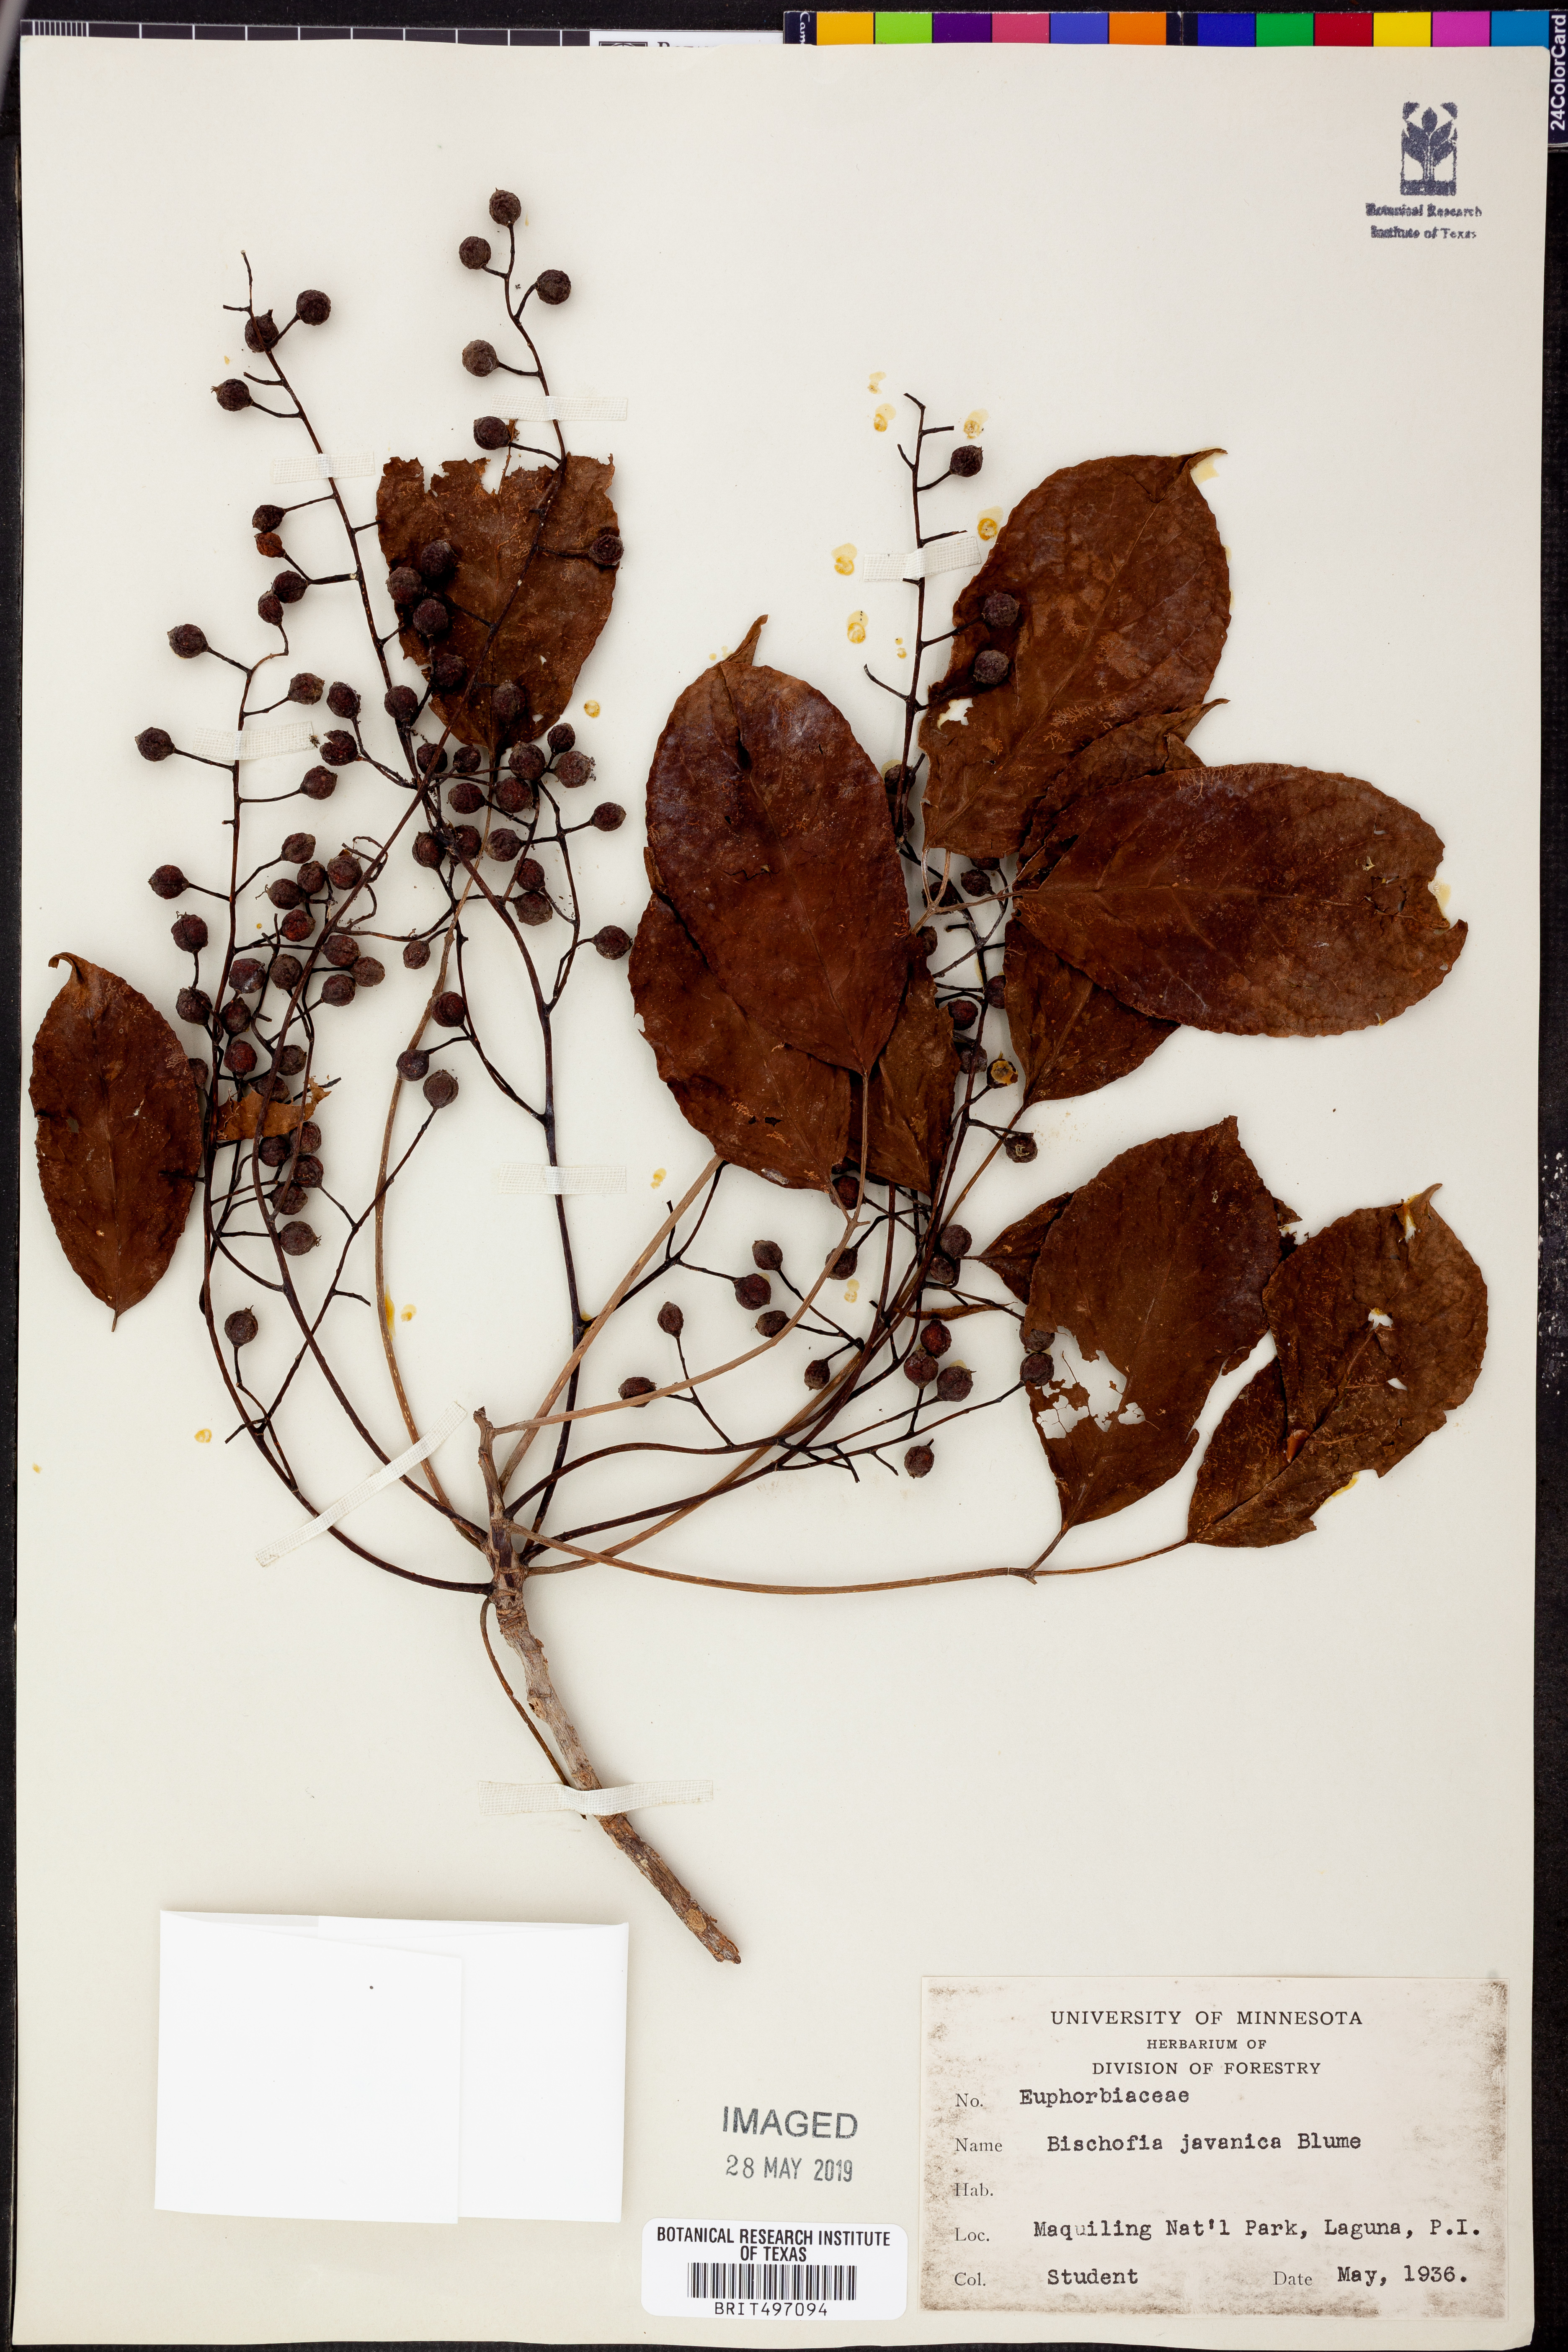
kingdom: Plantae
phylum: Tracheophyta
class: Magnoliopsida
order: Malpighiales
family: Phyllanthaceae
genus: Bischofia
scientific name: Bischofia javanica
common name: Javanese bishopwood
